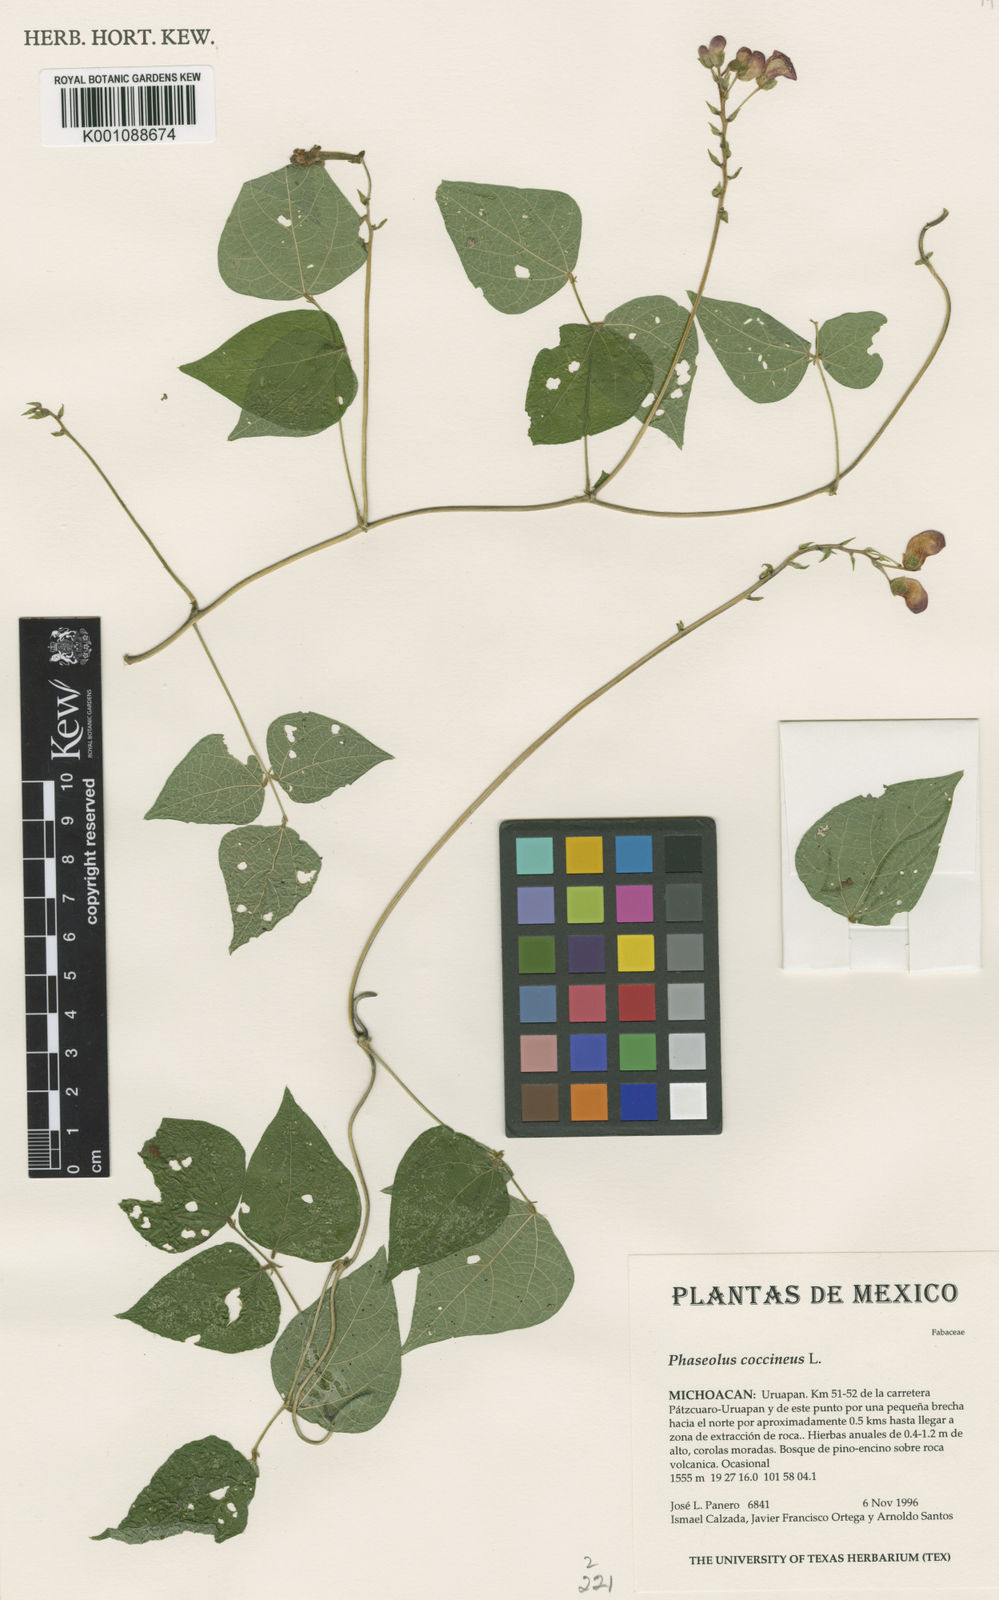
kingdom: Plantae
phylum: Tracheophyta
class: Magnoliopsida
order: Fabales
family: Fabaceae
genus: Phaseolus
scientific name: Phaseolus coccineus
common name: Runner bean
